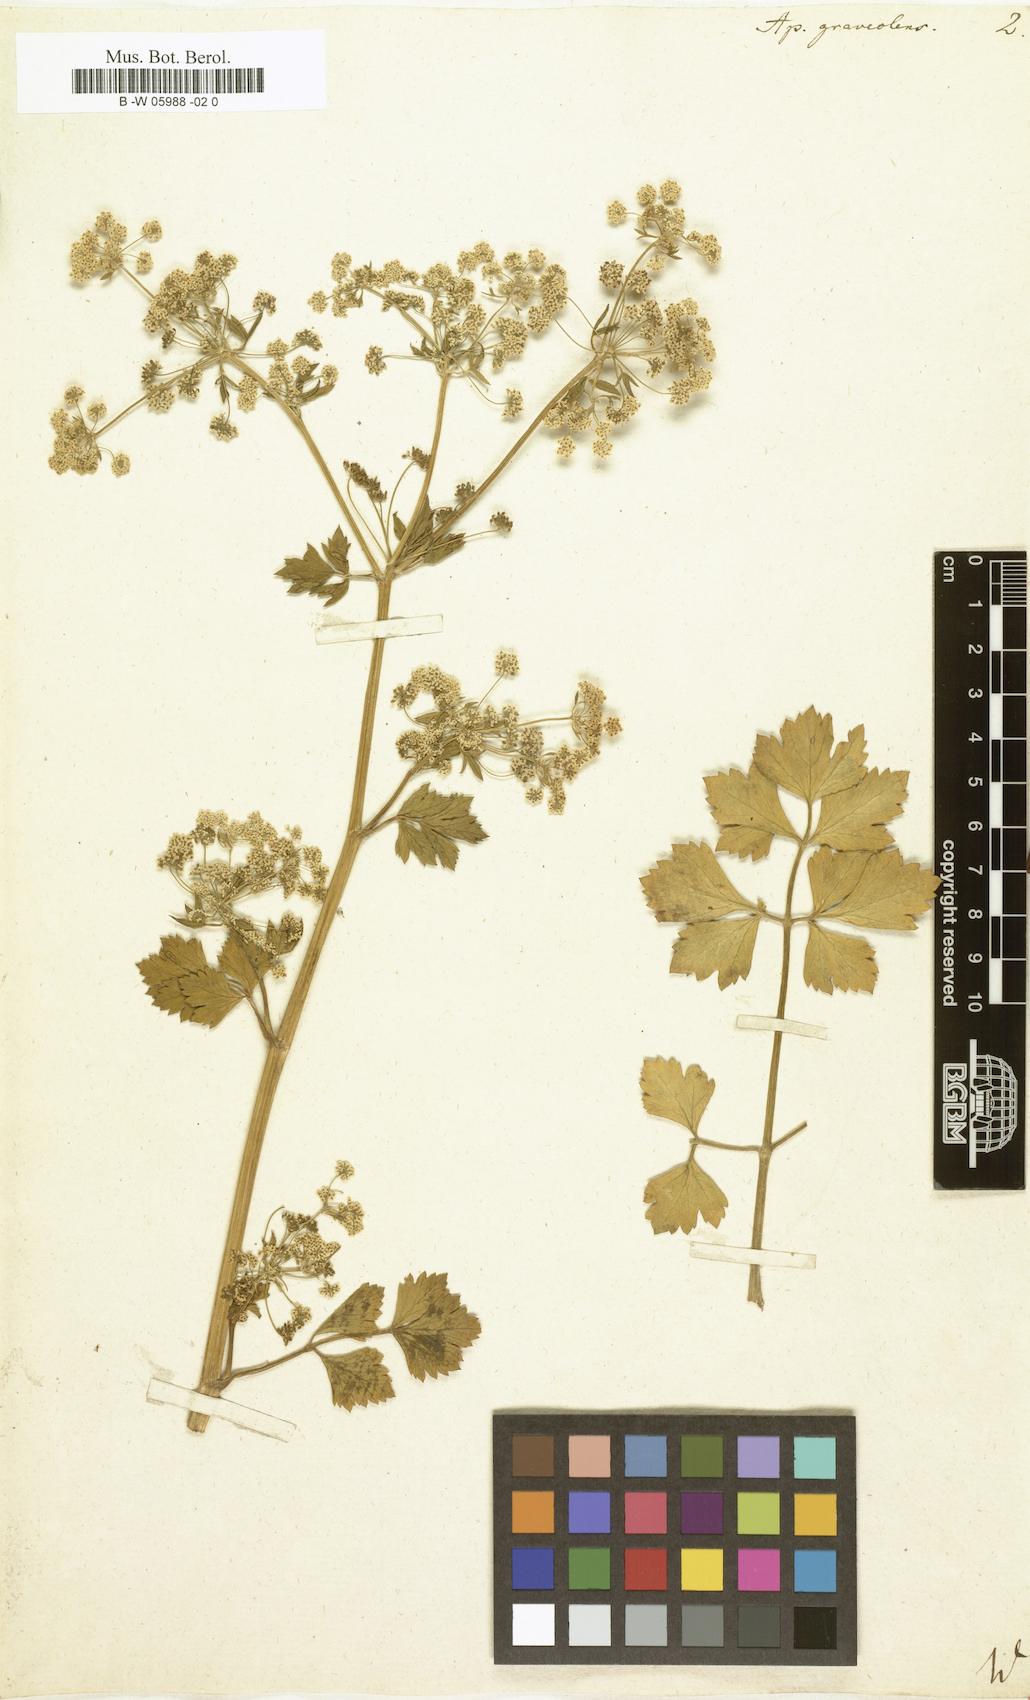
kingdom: Plantae
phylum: Tracheophyta
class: Magnoliopsida
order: Apiales
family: Apiaceae
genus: Apium
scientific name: Apium graveolens
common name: Wild celery
